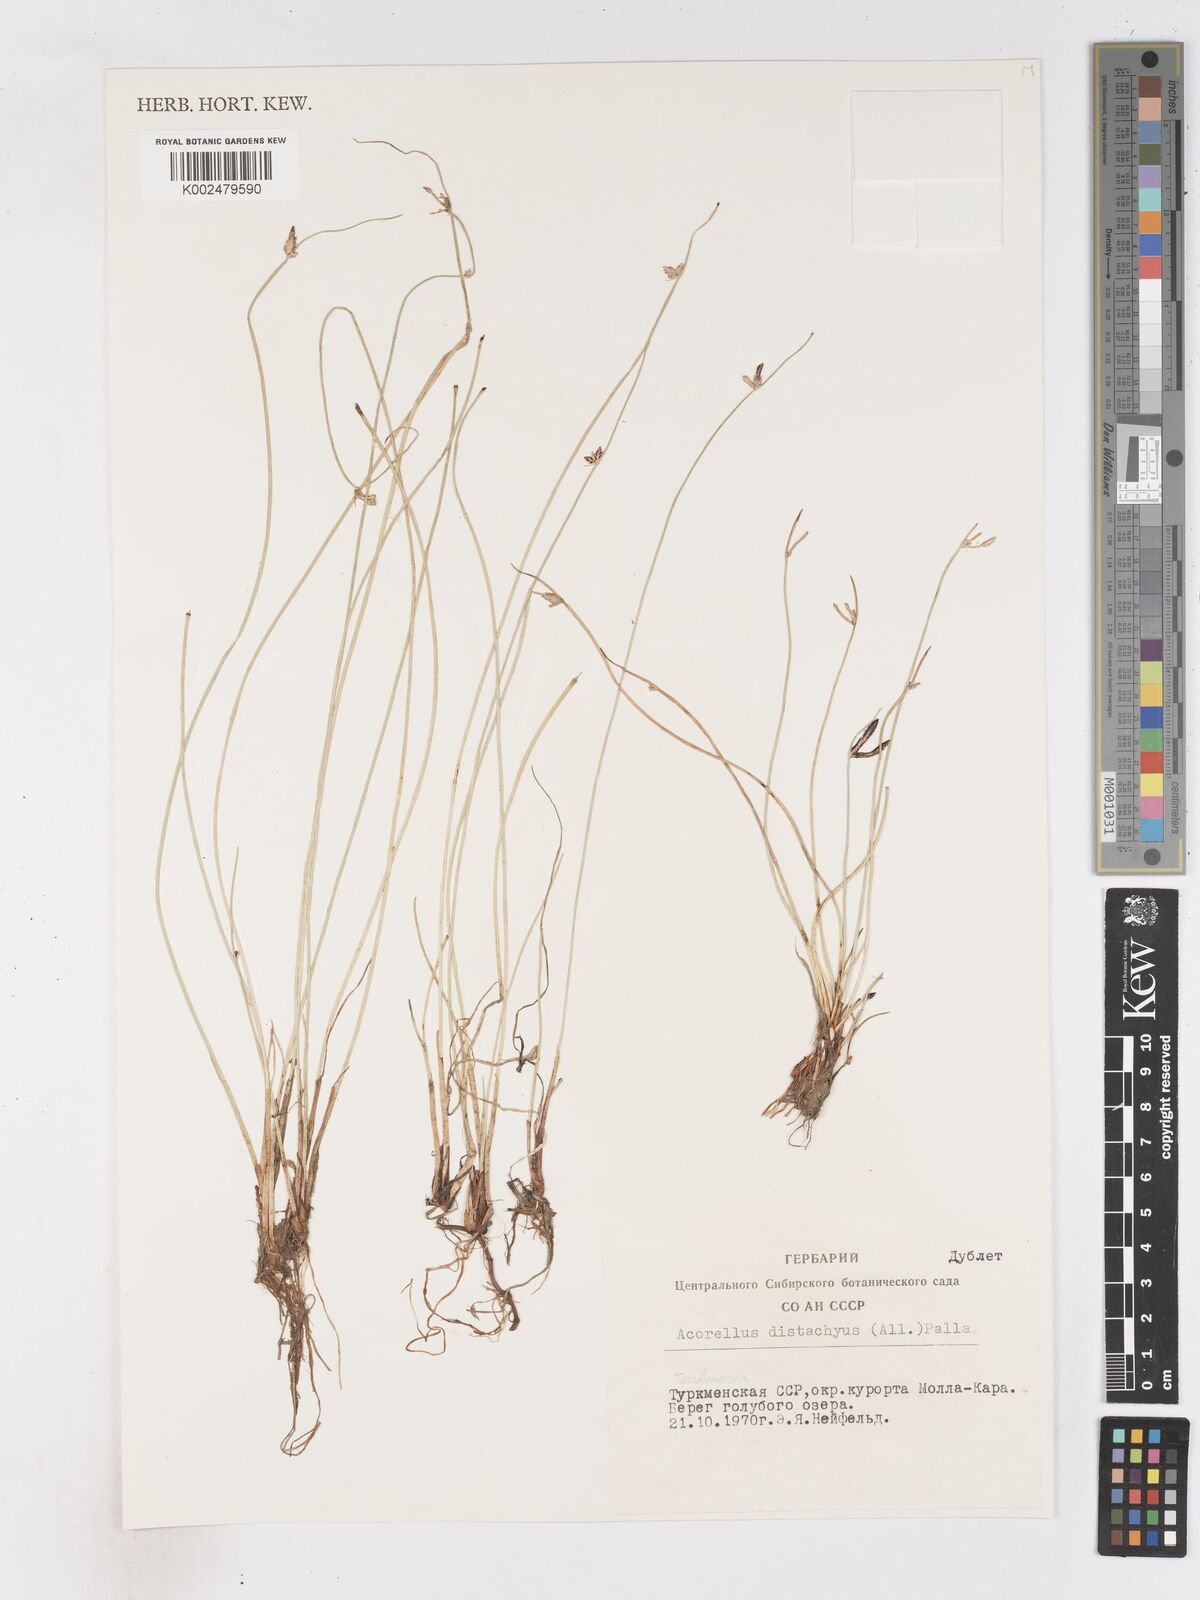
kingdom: Plantae
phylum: Tracheophyta
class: Liliopsida
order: Poales
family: Cyperaceae
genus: Cyperus
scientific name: Cyperus laevigatus
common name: Smooth flat sedge
